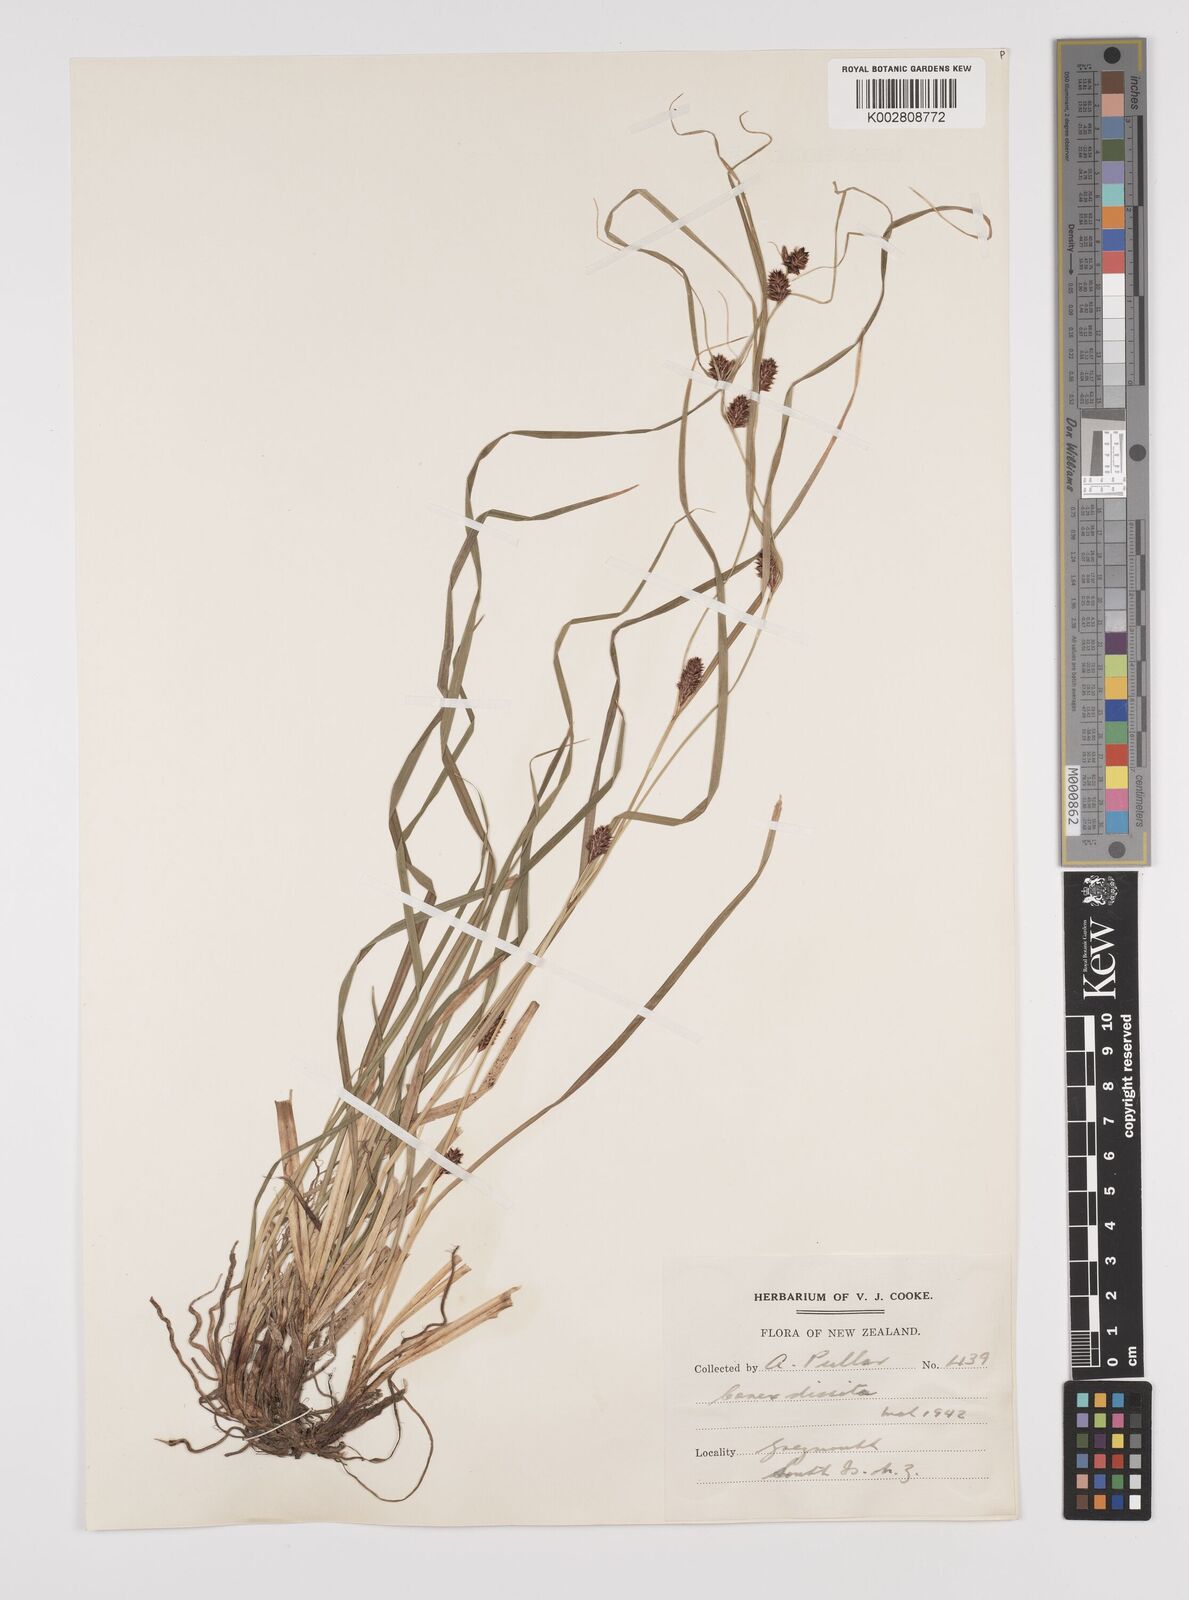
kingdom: Plantae
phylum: Tracheophyta
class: Liliopsida
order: Poales
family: Cyperaceae
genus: Carex
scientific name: Carex dissita
